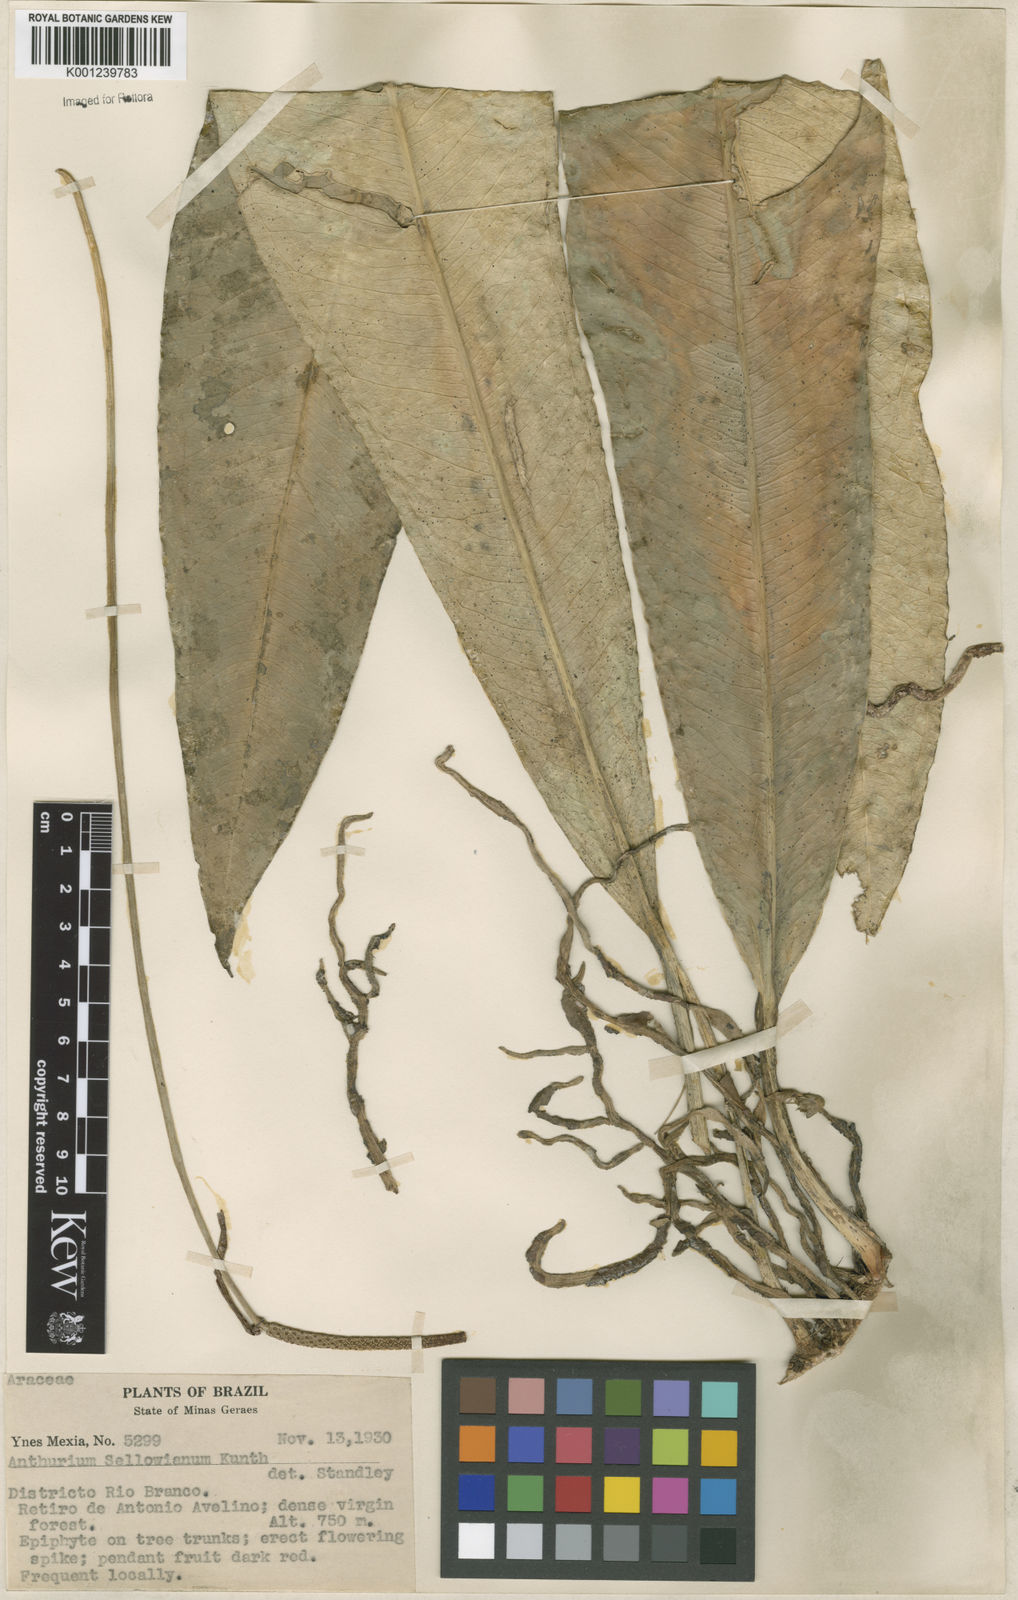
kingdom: Plantae
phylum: Tracheophyta
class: Liliopsida
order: Alismatales
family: Araceae
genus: Anthurium
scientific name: Anthurium
